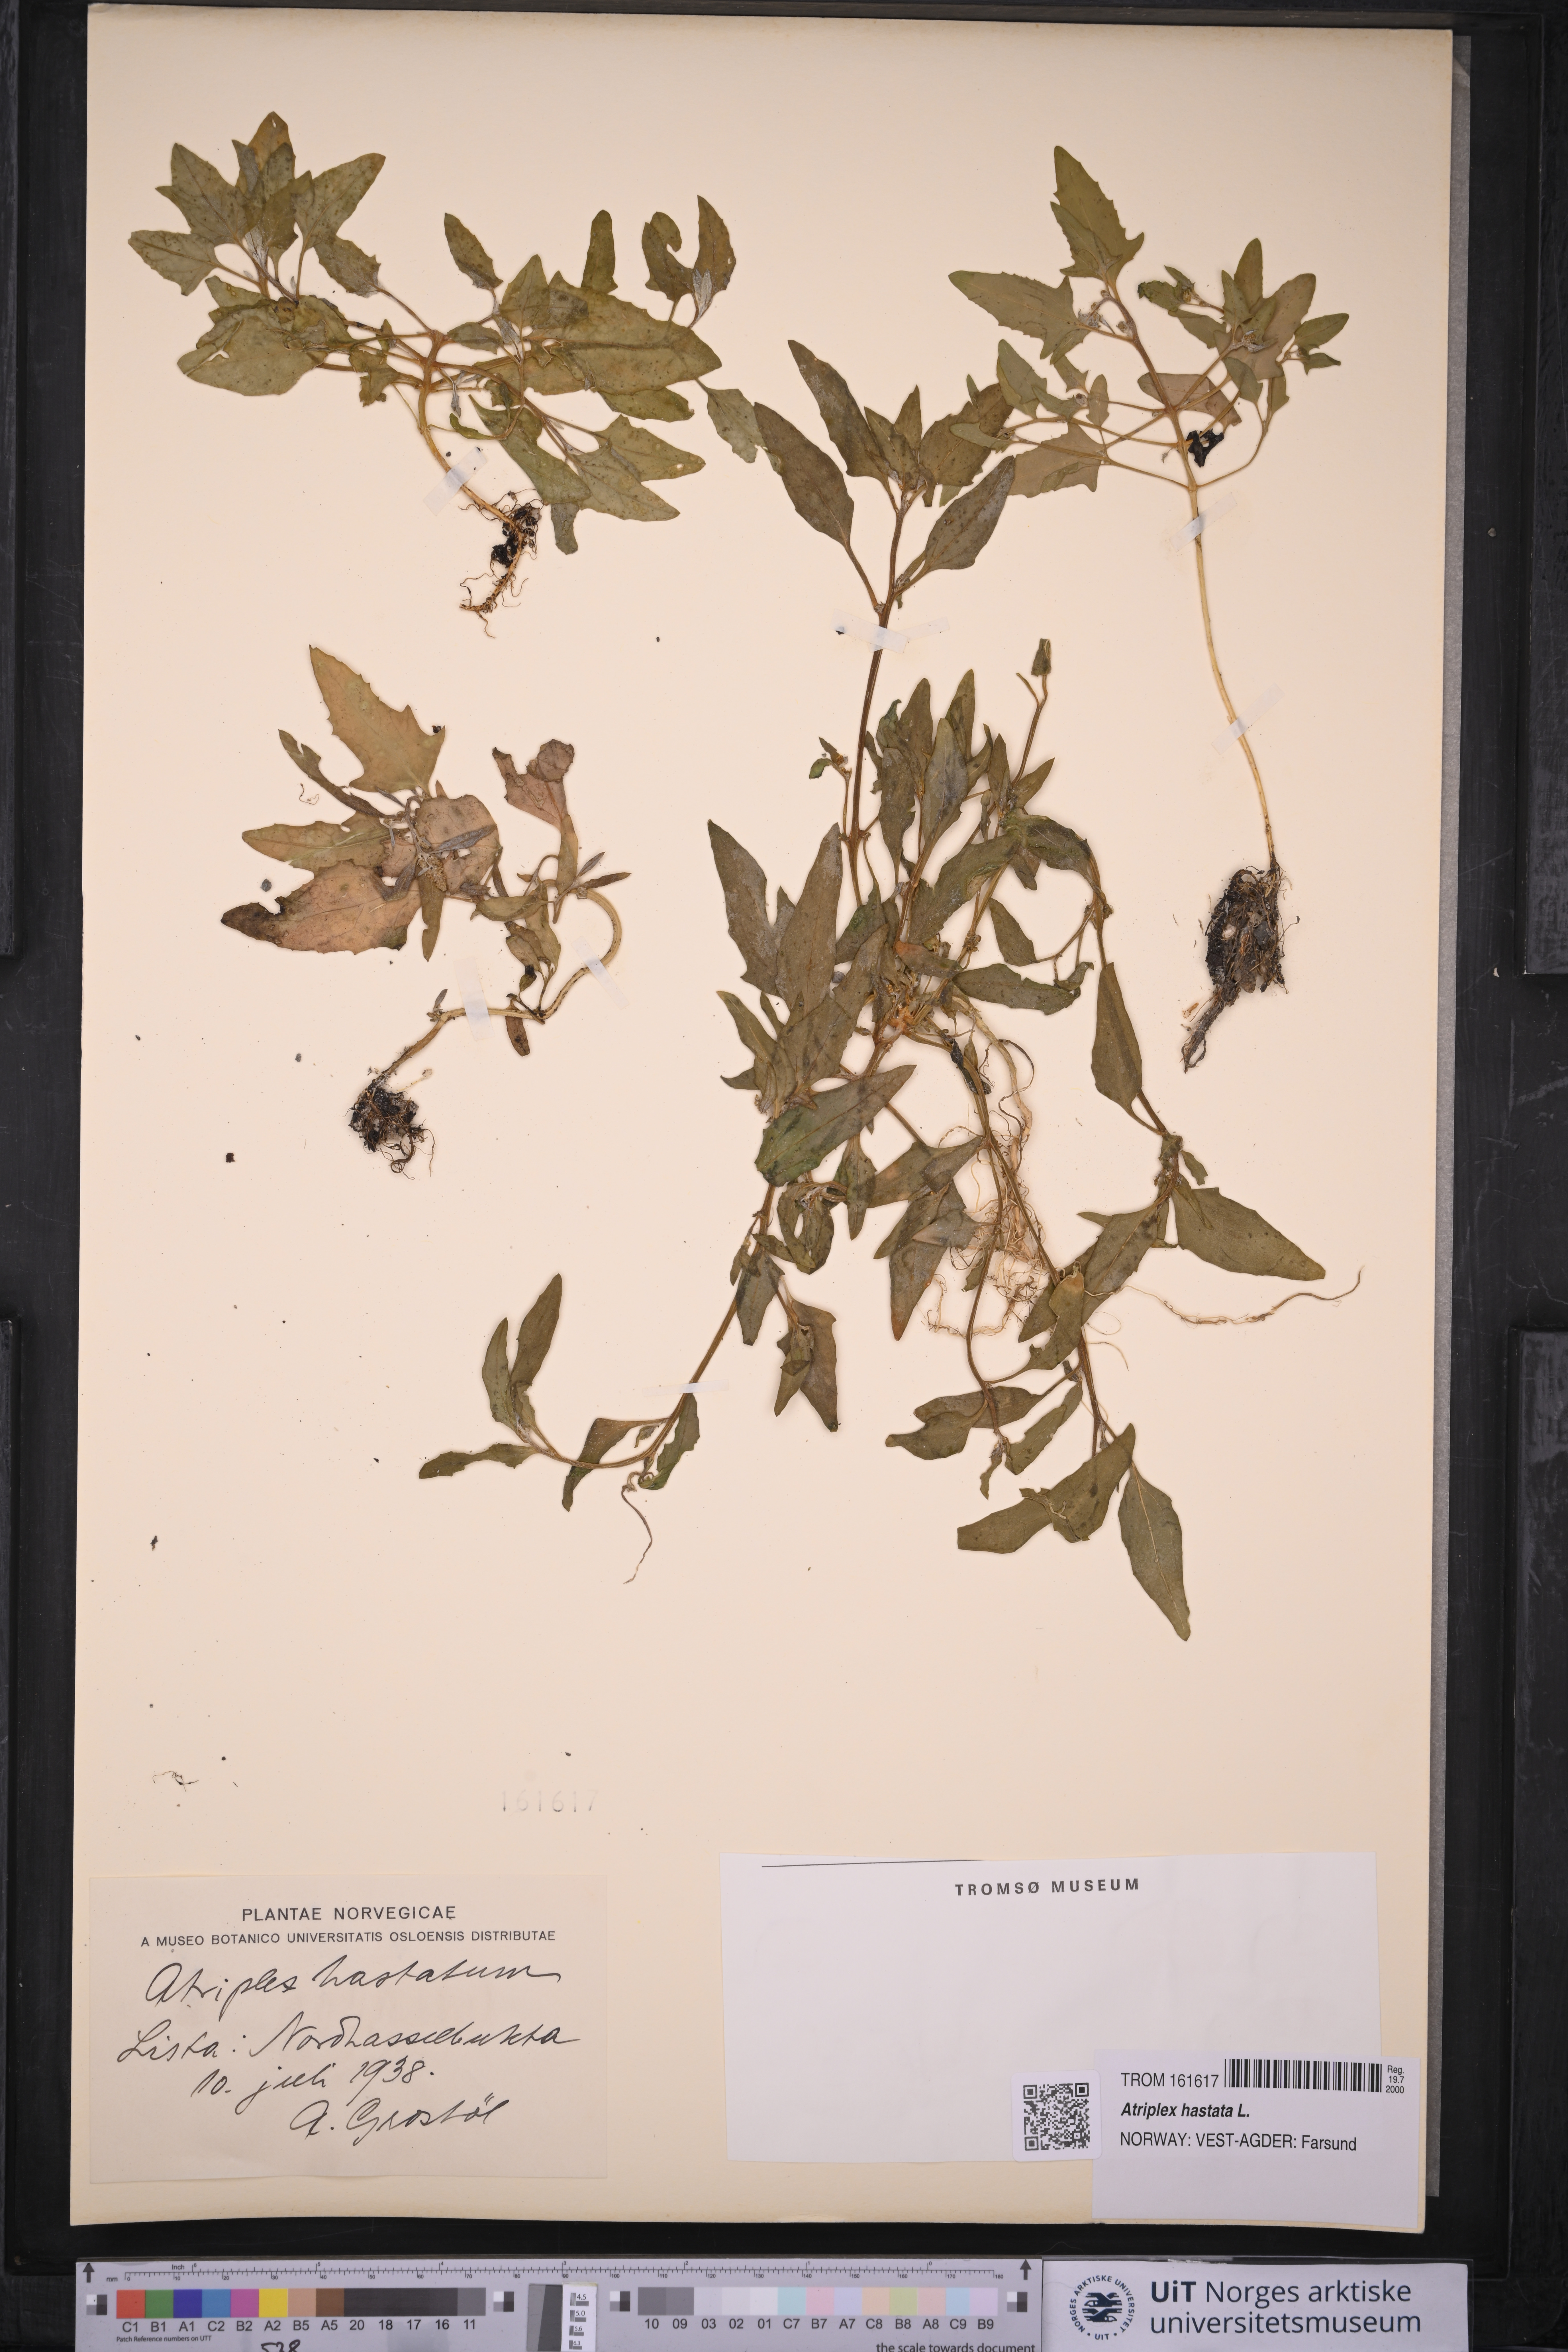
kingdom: Plantae
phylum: Tracheophyta
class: Magnoliopsida
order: Caryophyllales
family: Amaranthaceae
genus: Atriplex
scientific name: Atriplex prostrata
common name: Spear-leaved orache
